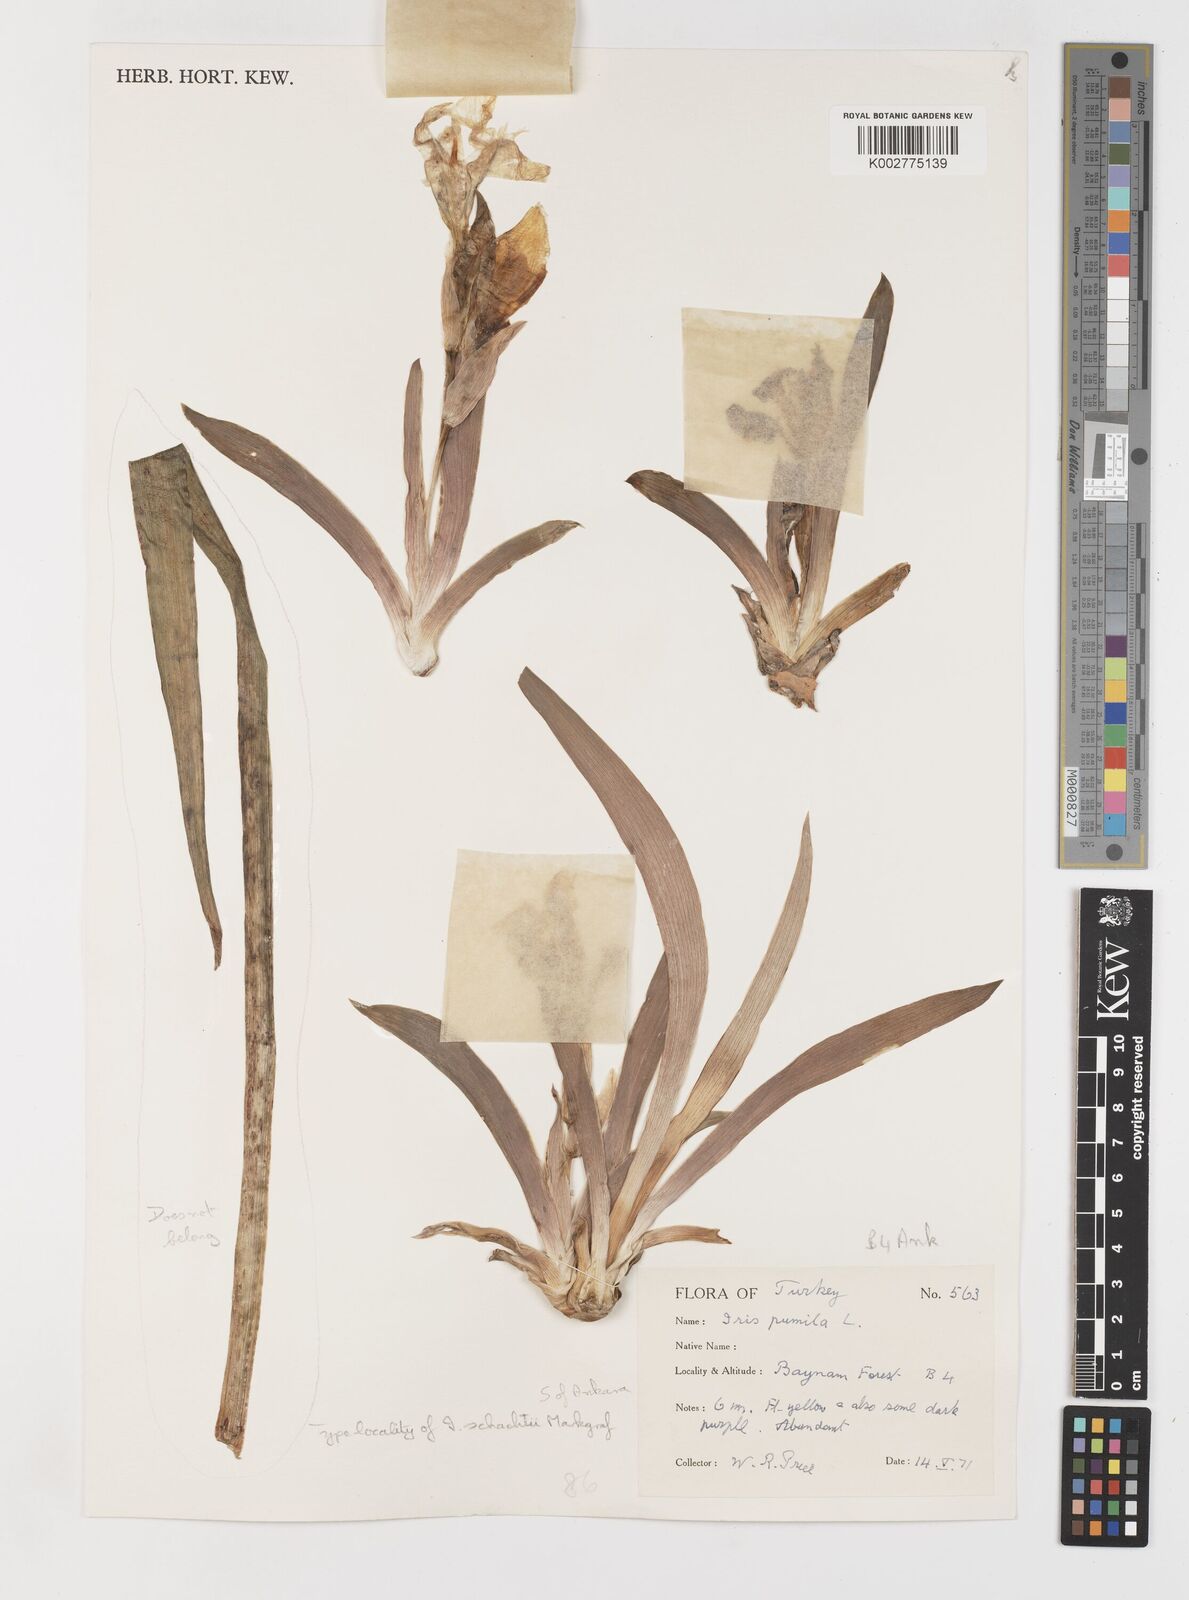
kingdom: Plantae
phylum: Tracheophyta
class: Liliopsida
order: Asparagales
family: Iridaceae
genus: Iris
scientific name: Iris schachtii
